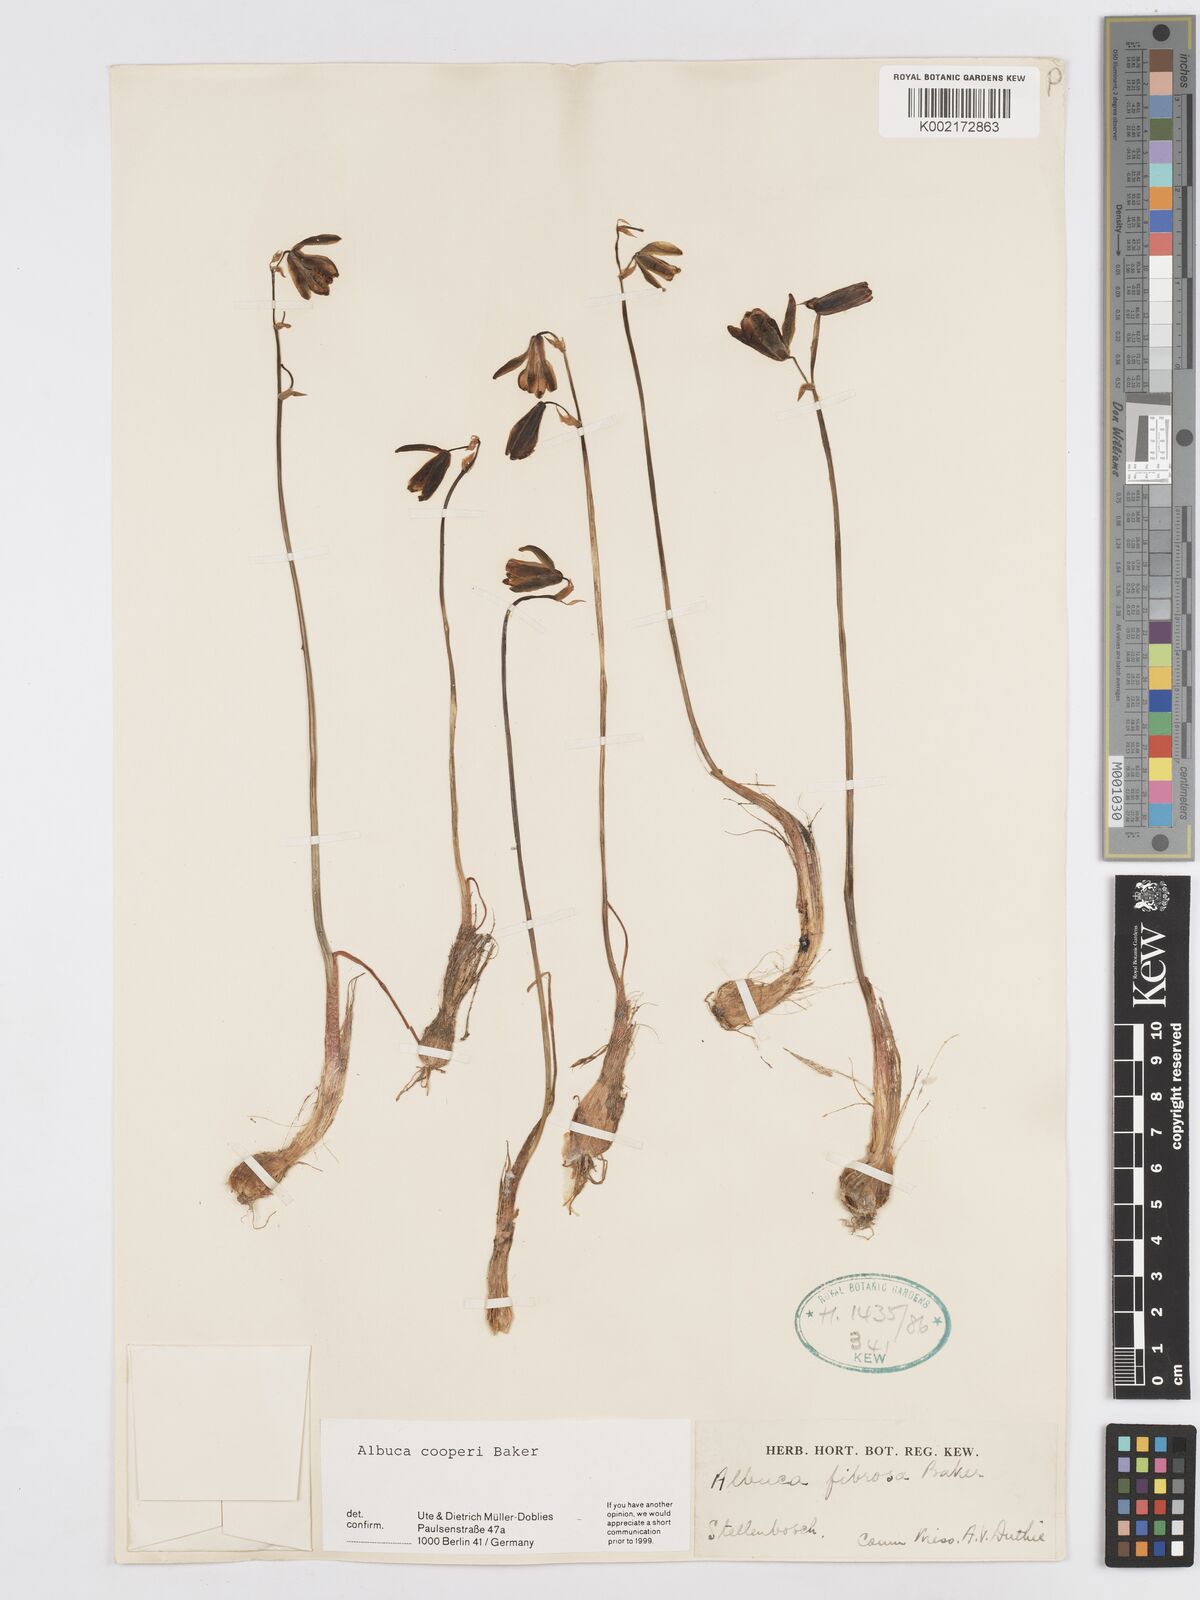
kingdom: Plantae
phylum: Tracheophyta
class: Liliopsida
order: Asparagales
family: Asparagaceae
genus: Albuca
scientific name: Albuca cooperi
